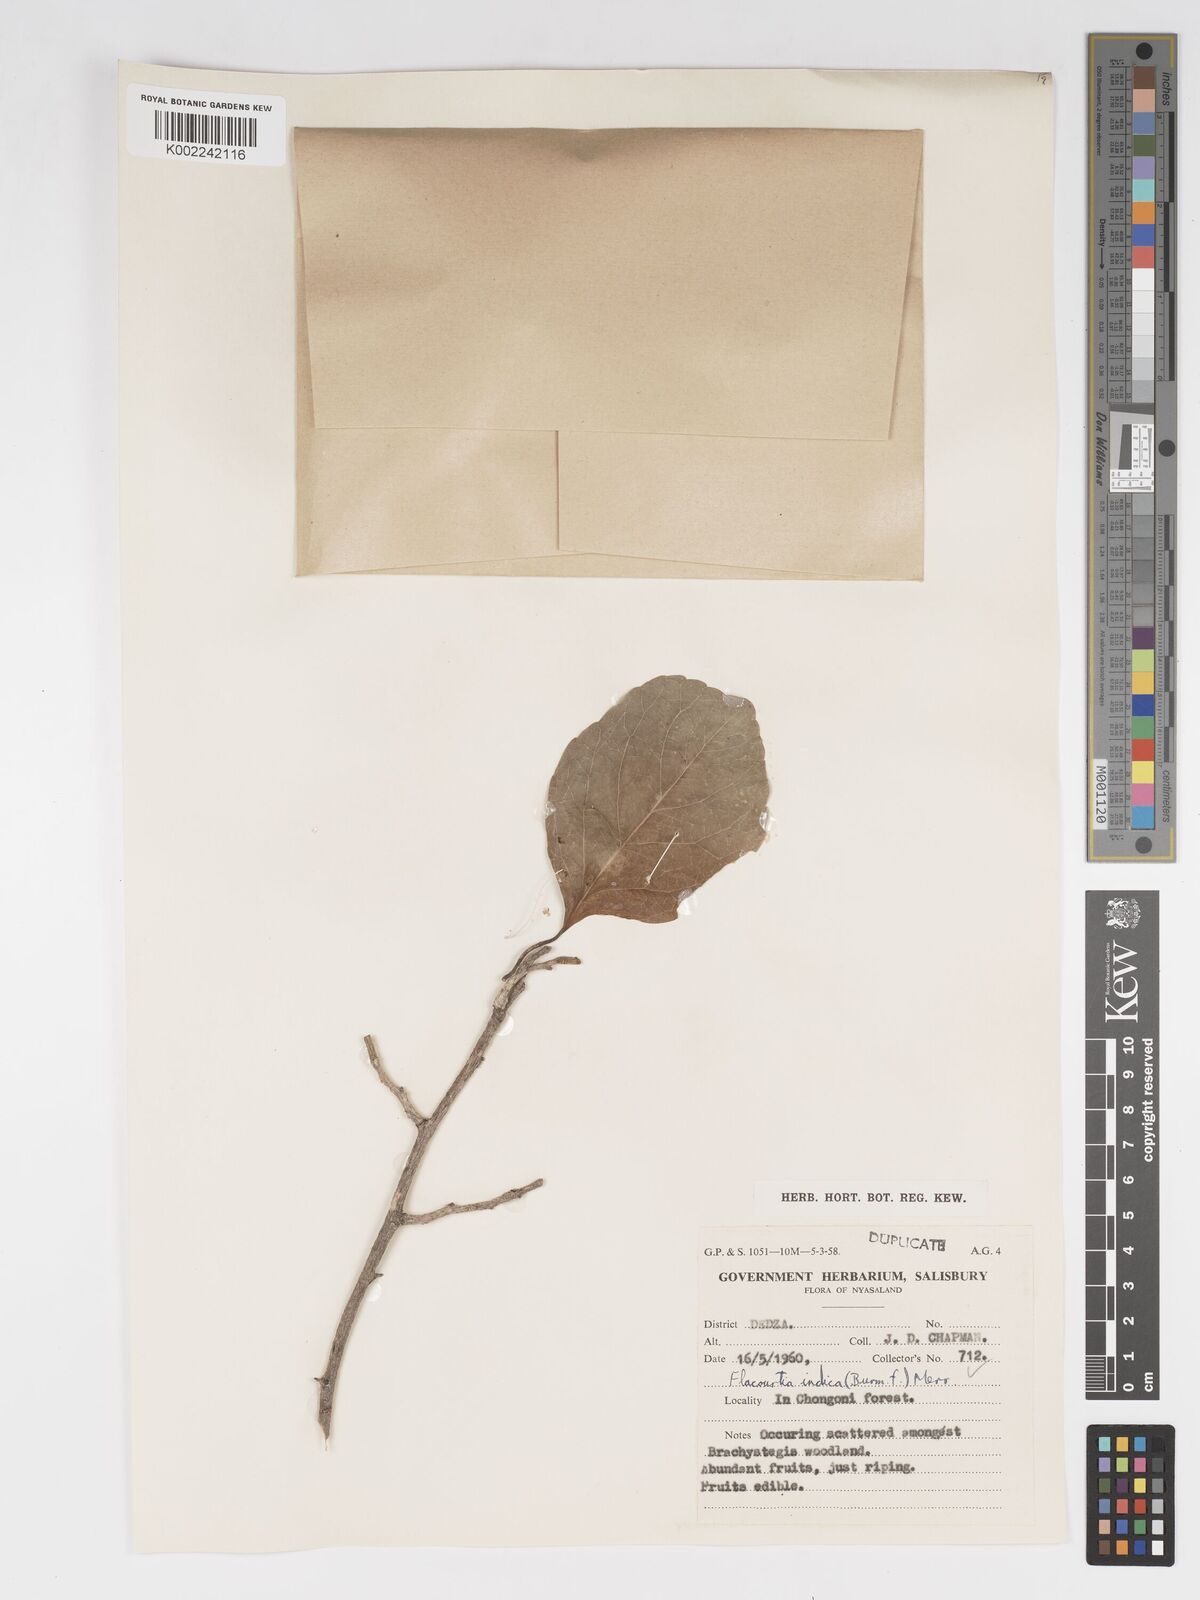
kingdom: Plantae
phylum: Tracheophyta
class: Magnoliopsida
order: Malpighiales
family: Salicaceae
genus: Flacourtia
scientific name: Flacourtia indica
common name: Governor's plum
